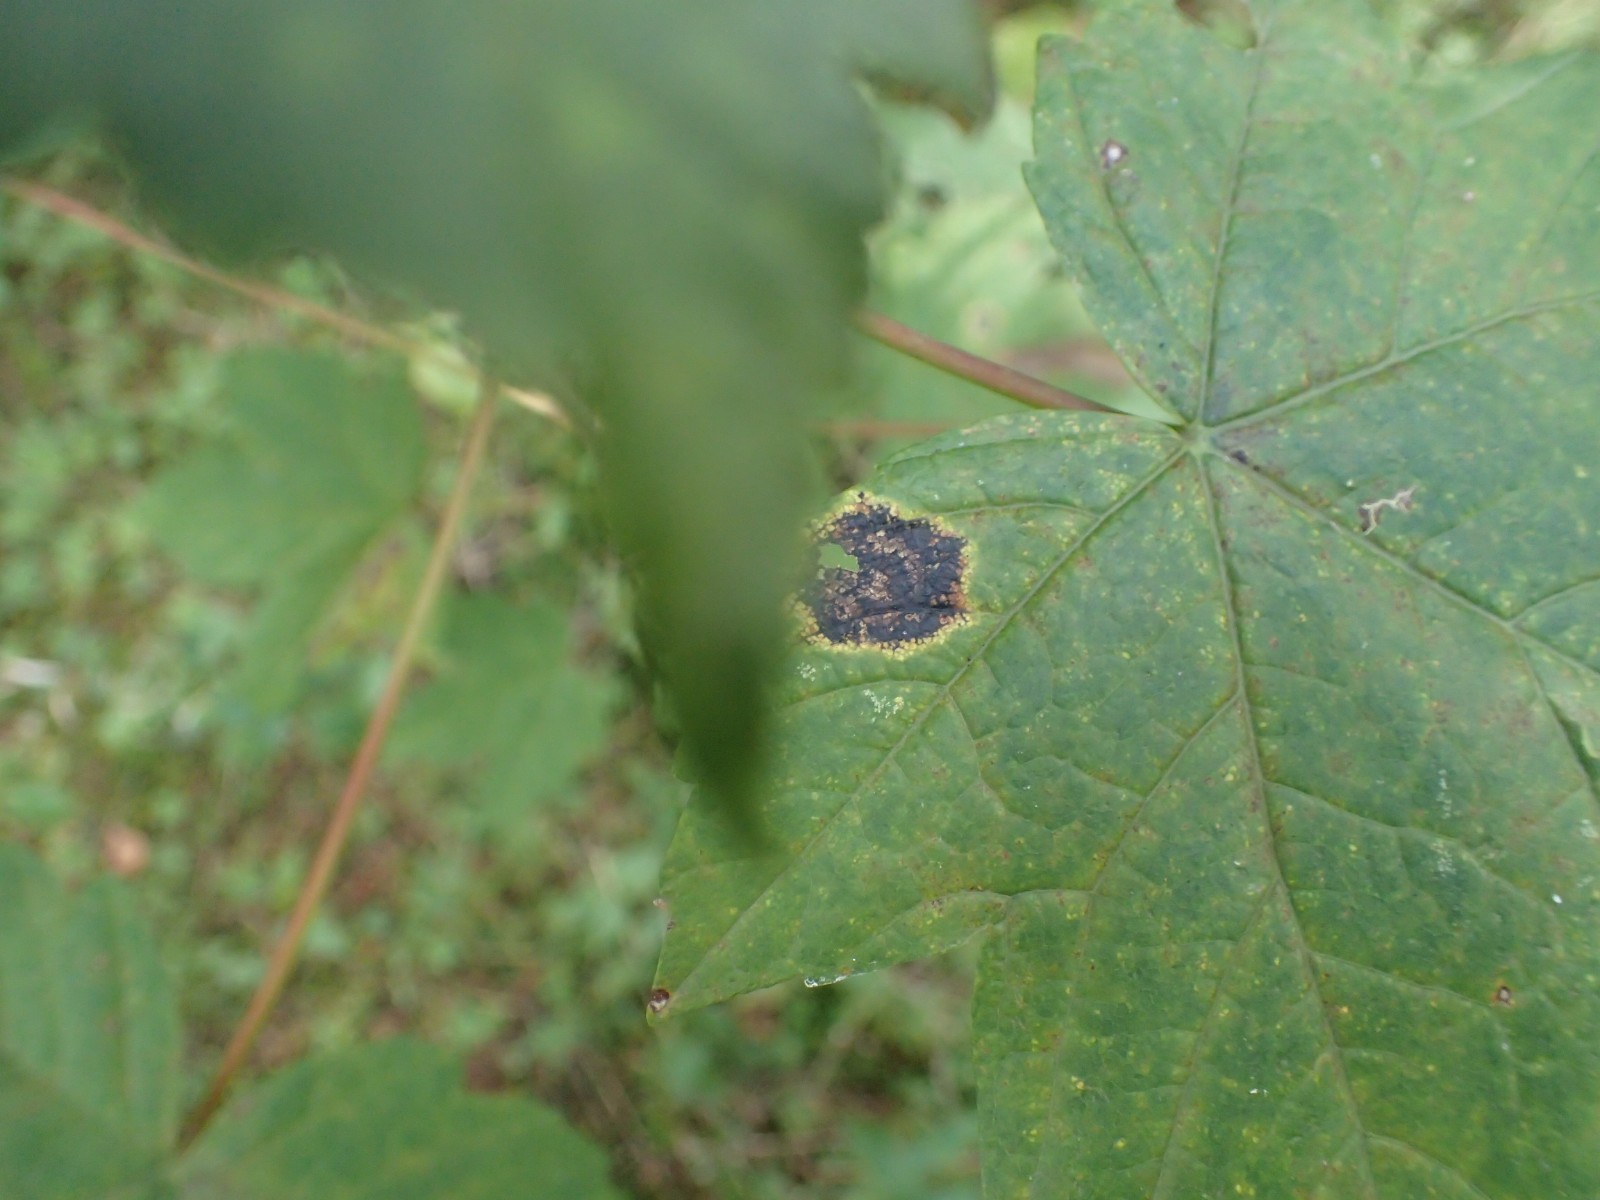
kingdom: Fungi
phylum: Ascomycota
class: Leotiomycetes
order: Rhytismatales
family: Rhytismataceae
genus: Rhytisma
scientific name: Rhytisma acerinum
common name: ahorn-rynkeplet
